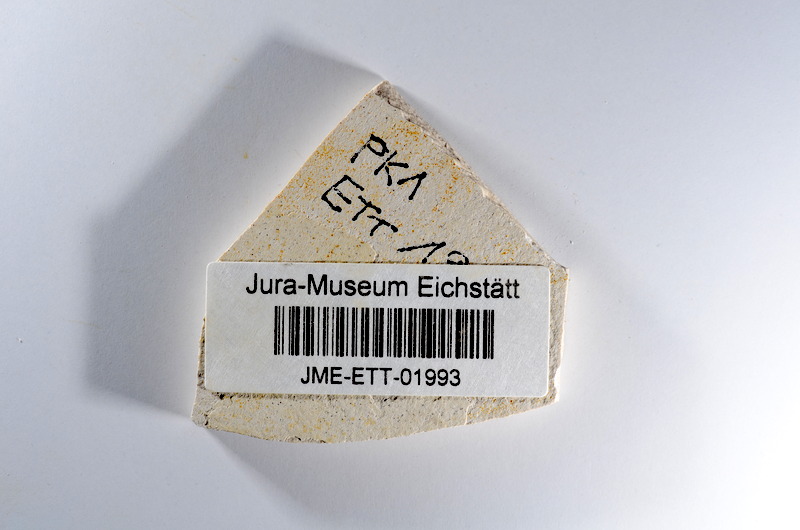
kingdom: Animalia
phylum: Chordata
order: Salmoniformes
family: Orthogonikleithridae
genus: Orthogonikleithrus
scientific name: Orthogonikleithrus hoelli
